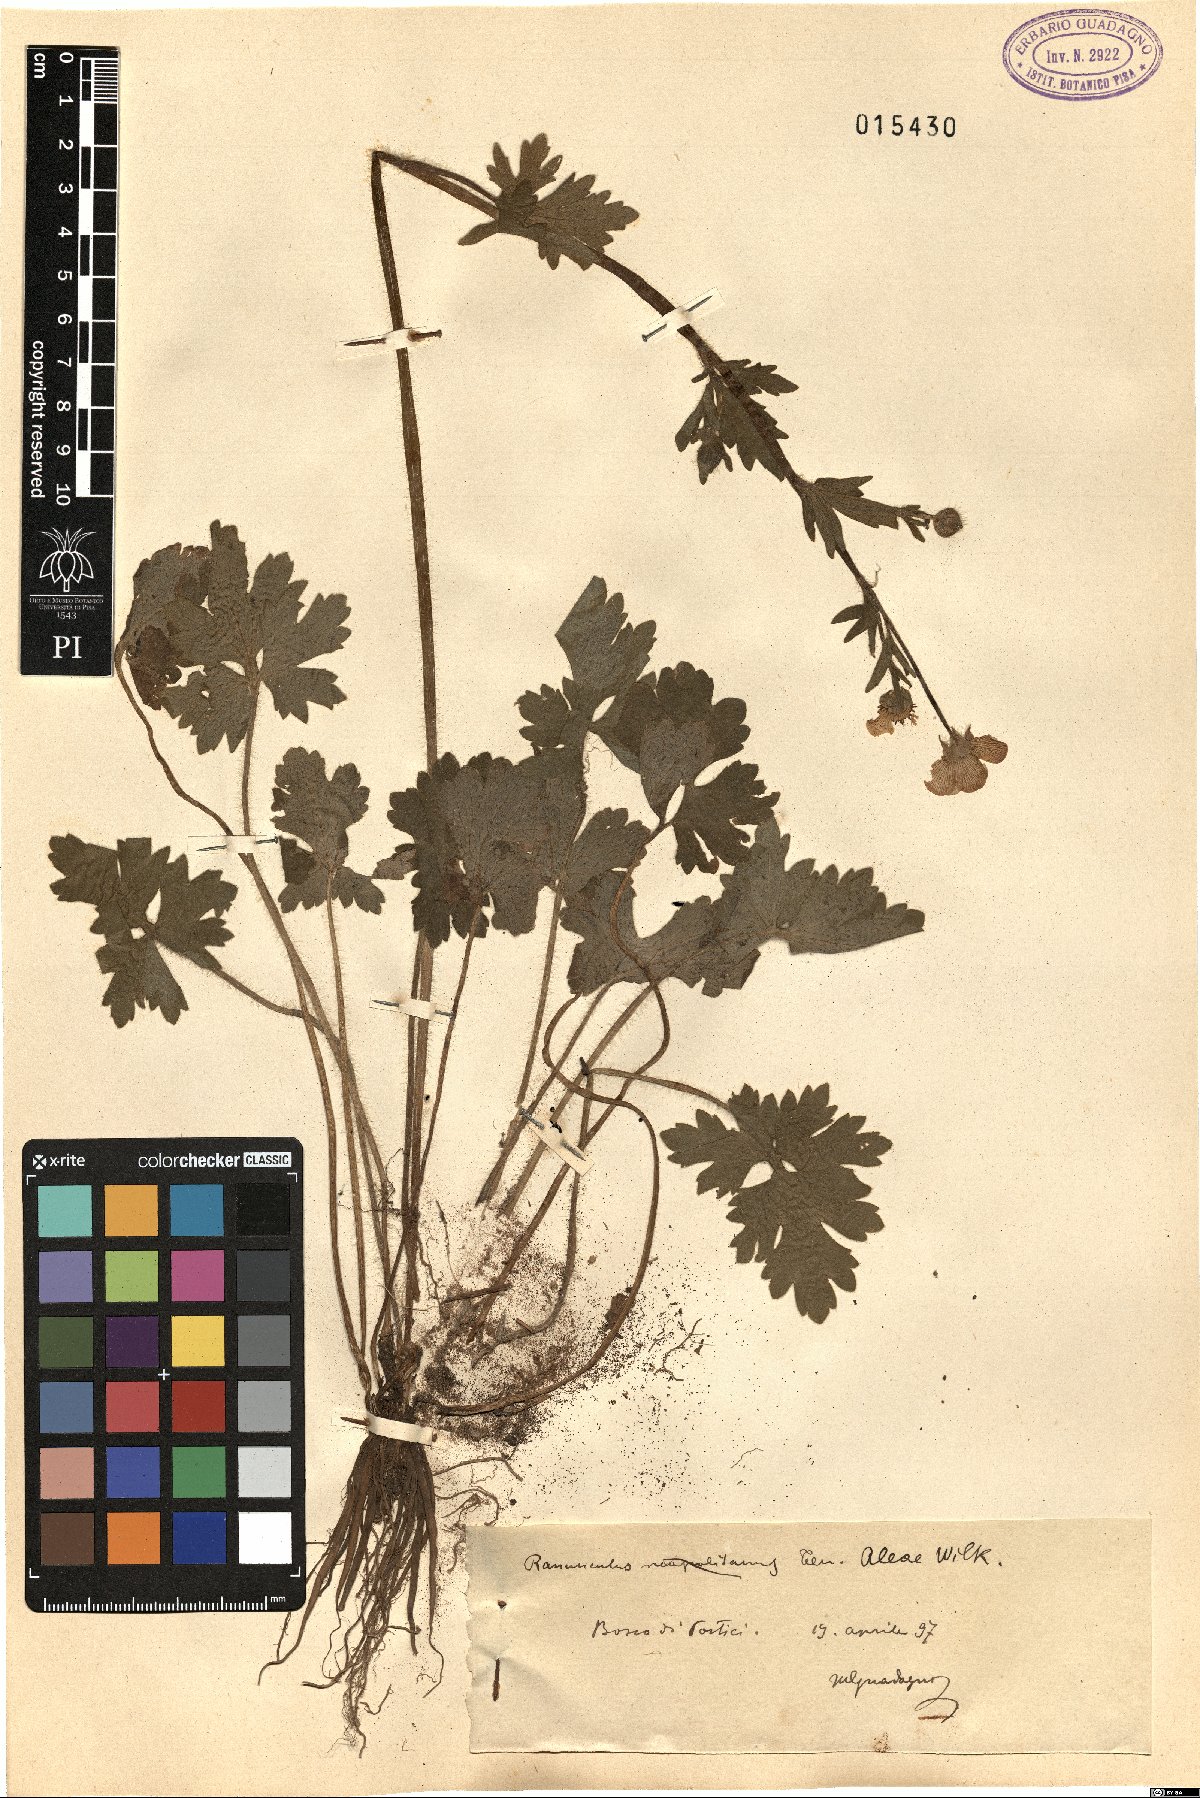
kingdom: Plantae
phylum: Tracheophyta
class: Magnoliopsida
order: Ranunculales
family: Ranunculaceae
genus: Ranunculus
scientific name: Ranunculus neapolitanus
